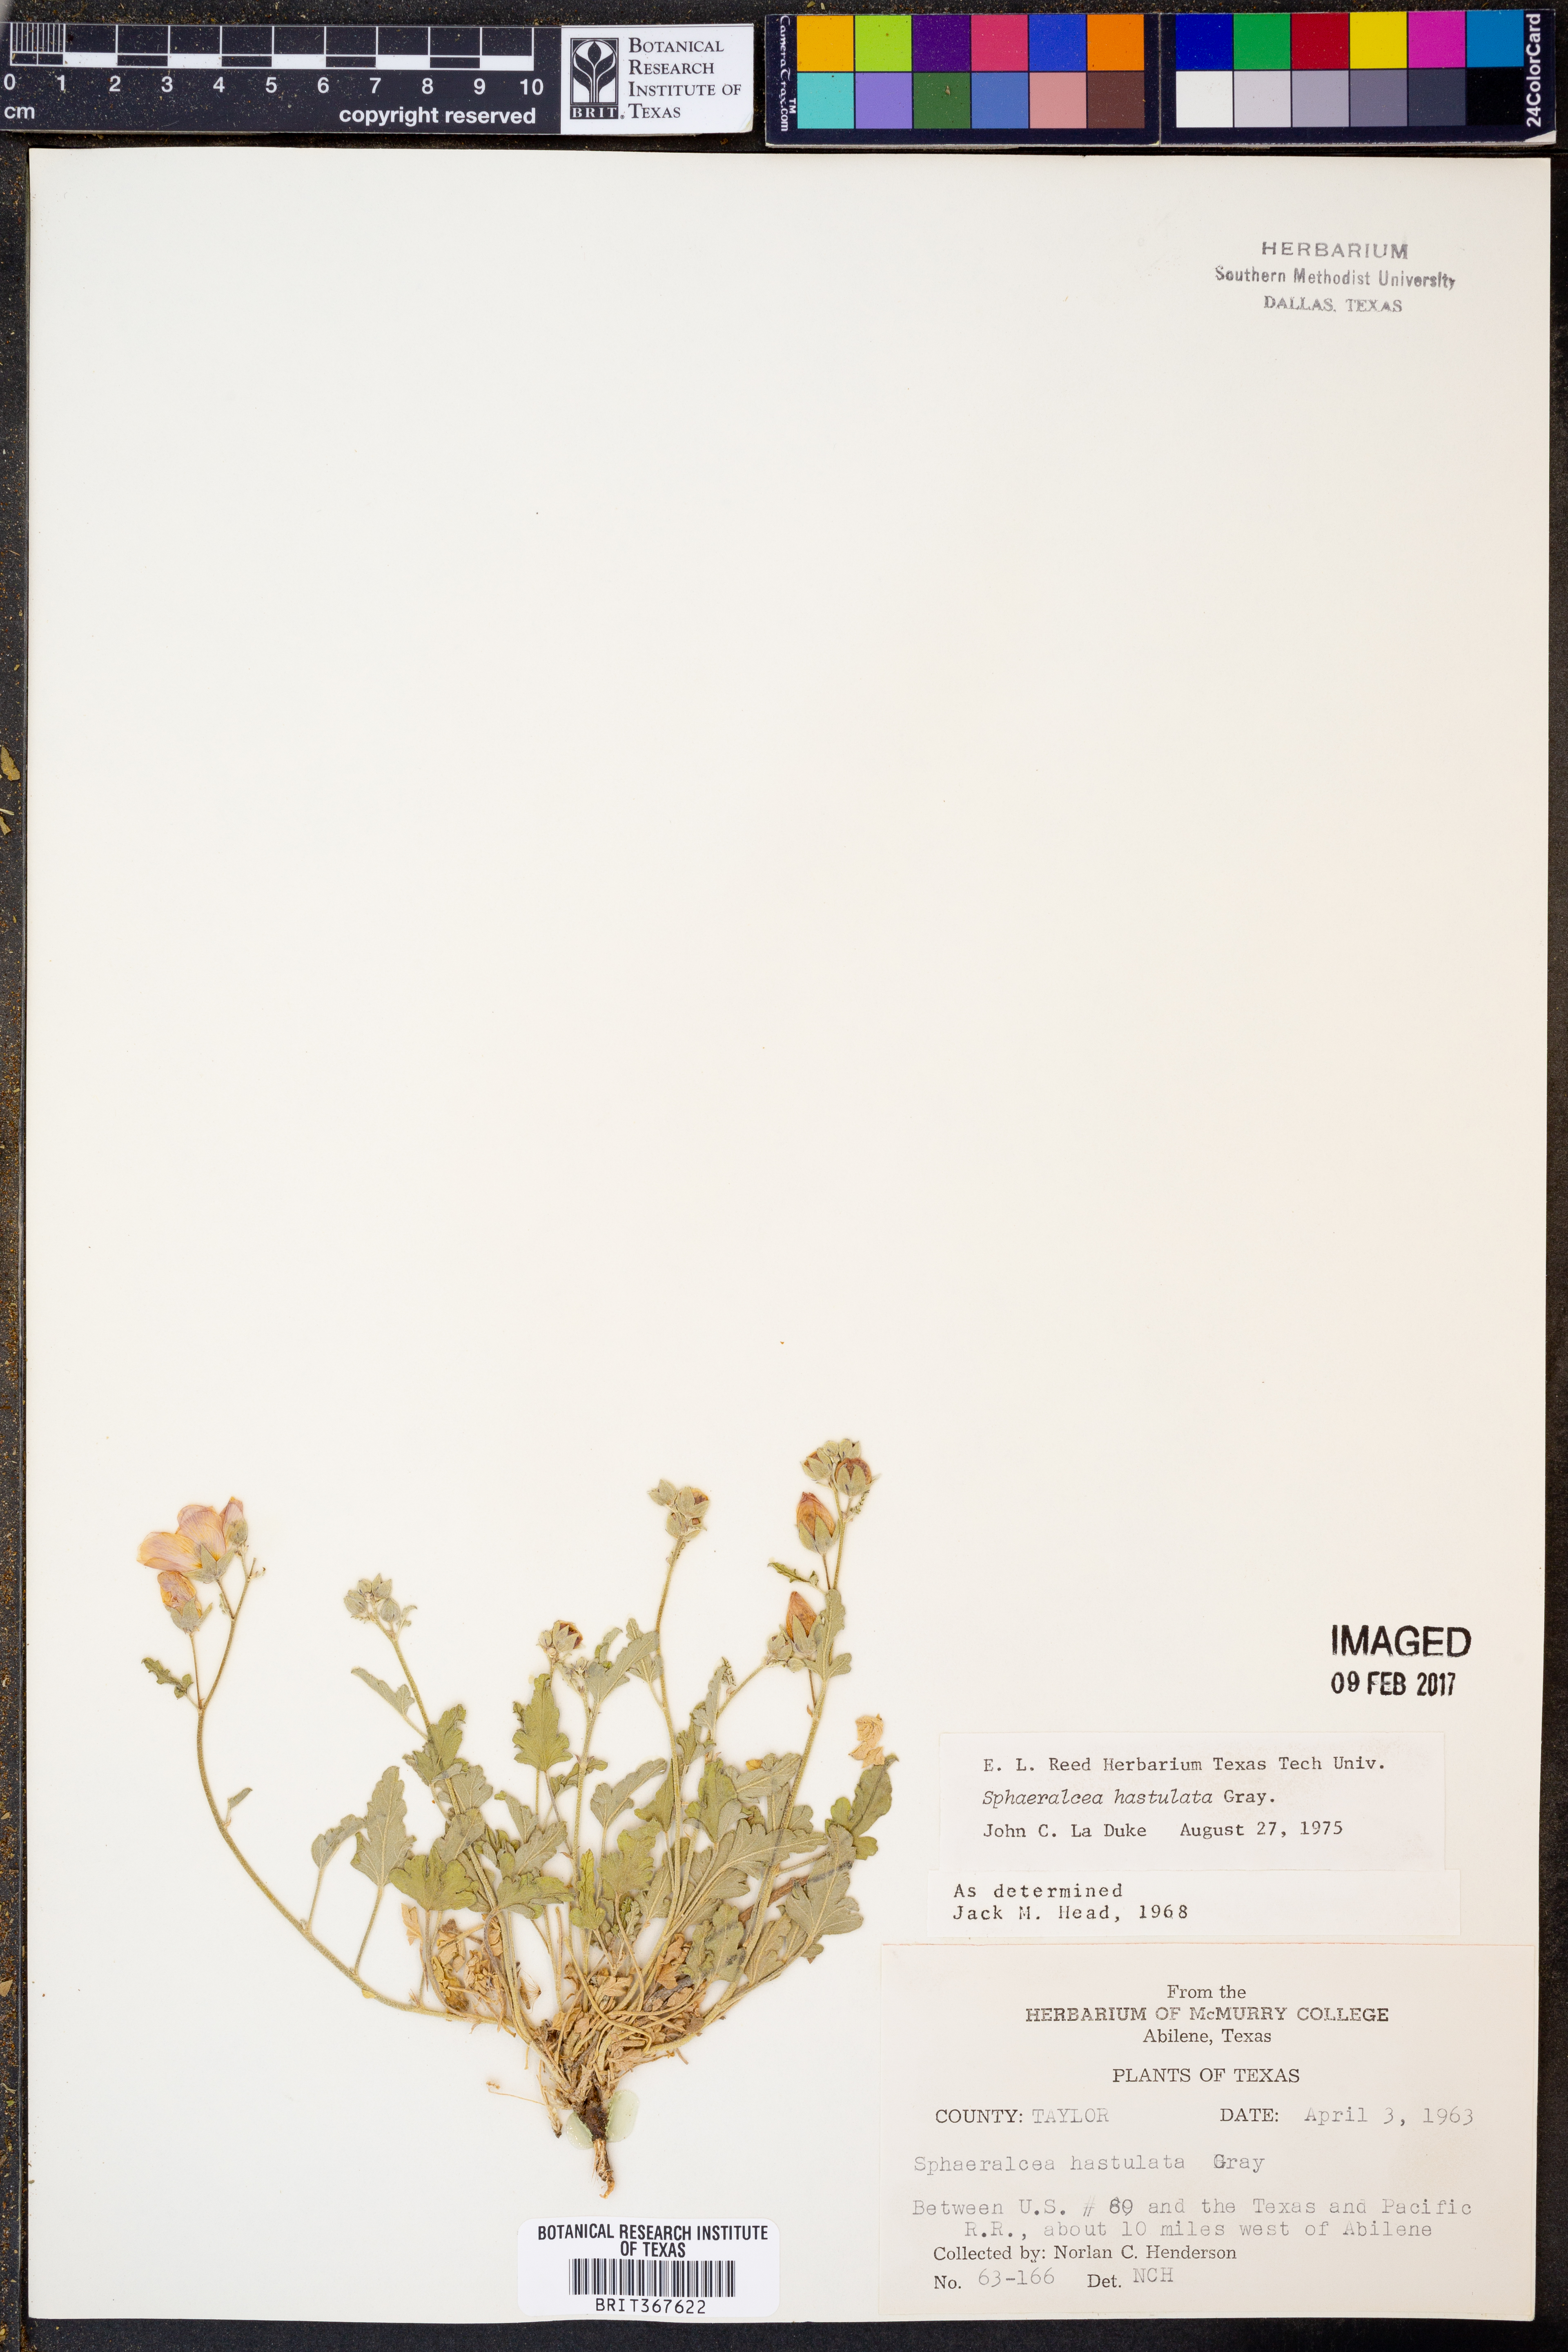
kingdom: Plantae
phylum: Tracheophyta
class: Magnoliopsida
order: Malvales
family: Malvaceae
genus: Sphaeralcea
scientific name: Sphaeralcea hastulata
